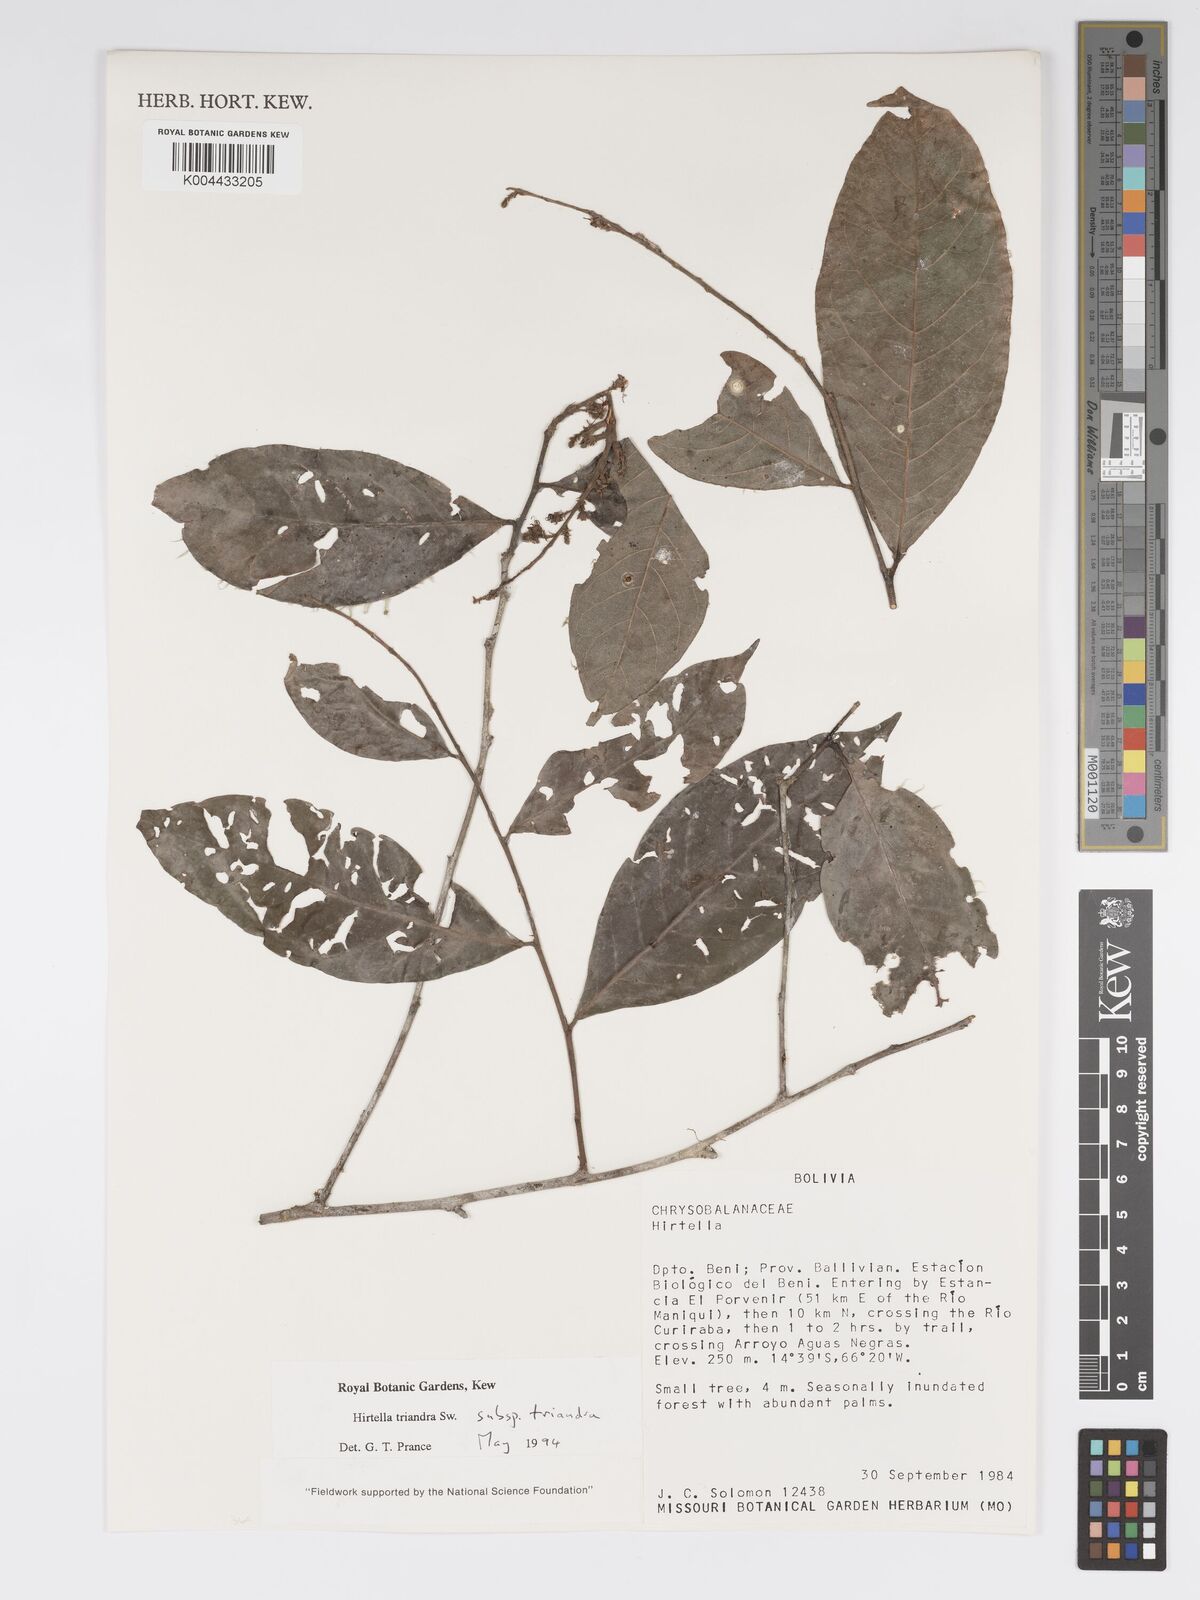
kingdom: Plantae
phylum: Tracheophyta
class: Magnoliopsida
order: Malpighiales
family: Chrysobalanaceae
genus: Hirtella
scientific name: Hirtella triandra
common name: Hairy plum
